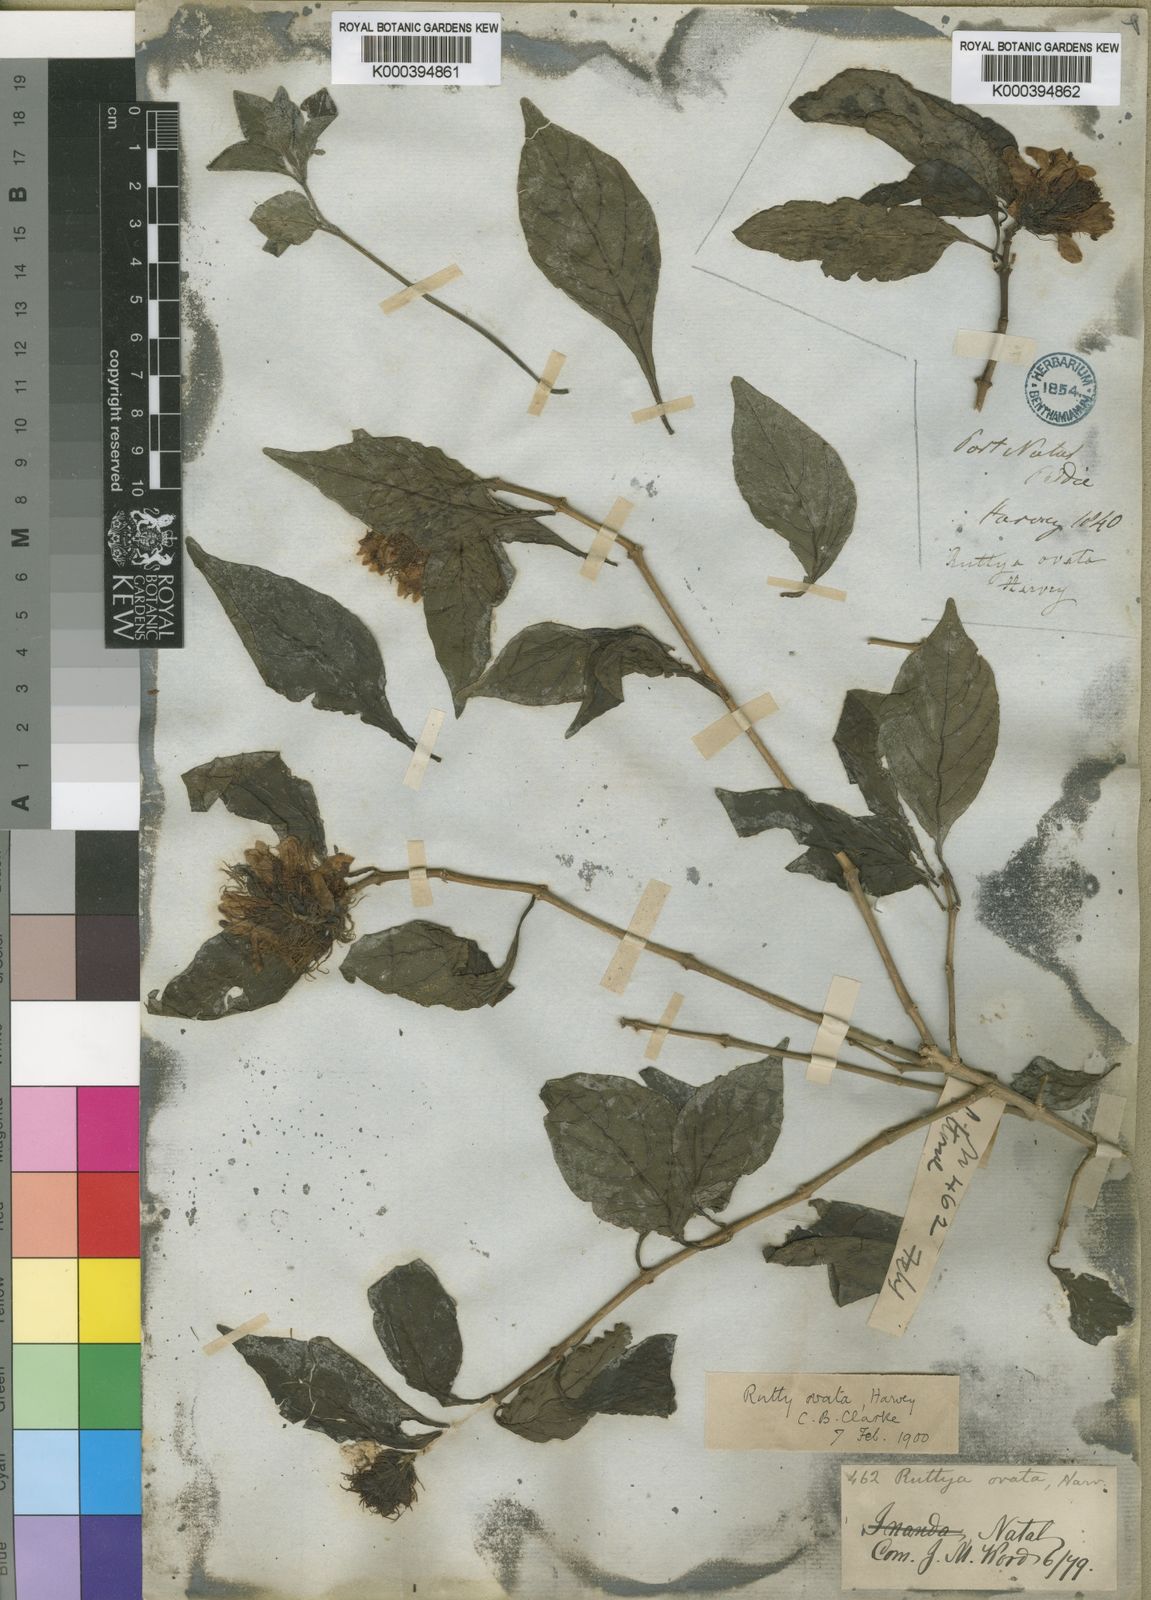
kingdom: Plantae
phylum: Tracheophyta
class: Magnoliopsida
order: Lamiales
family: Acanthaceae
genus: Ruttya
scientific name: Ruttya ovata
